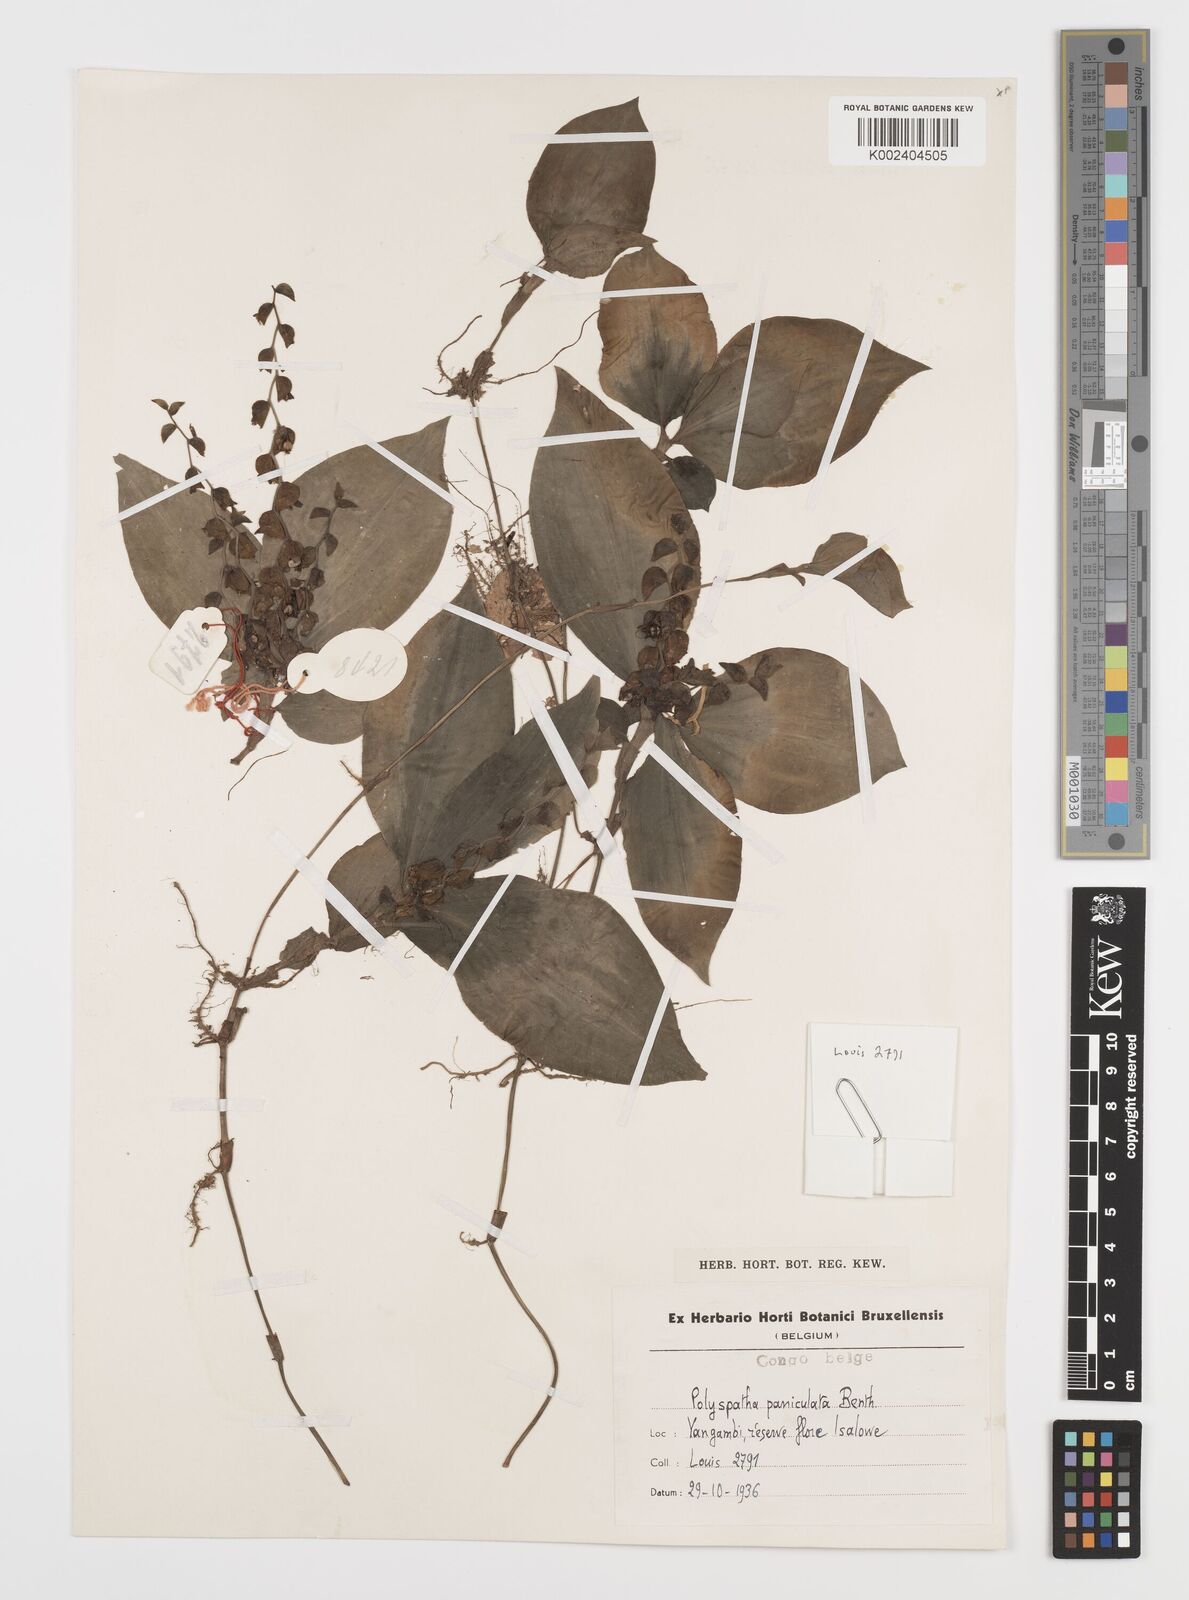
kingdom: Plantae
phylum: Tracheophyta
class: Liliopsida
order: Commelinales
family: Commelinaceae
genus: Polyspatha
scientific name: Polyspatha paniculata
